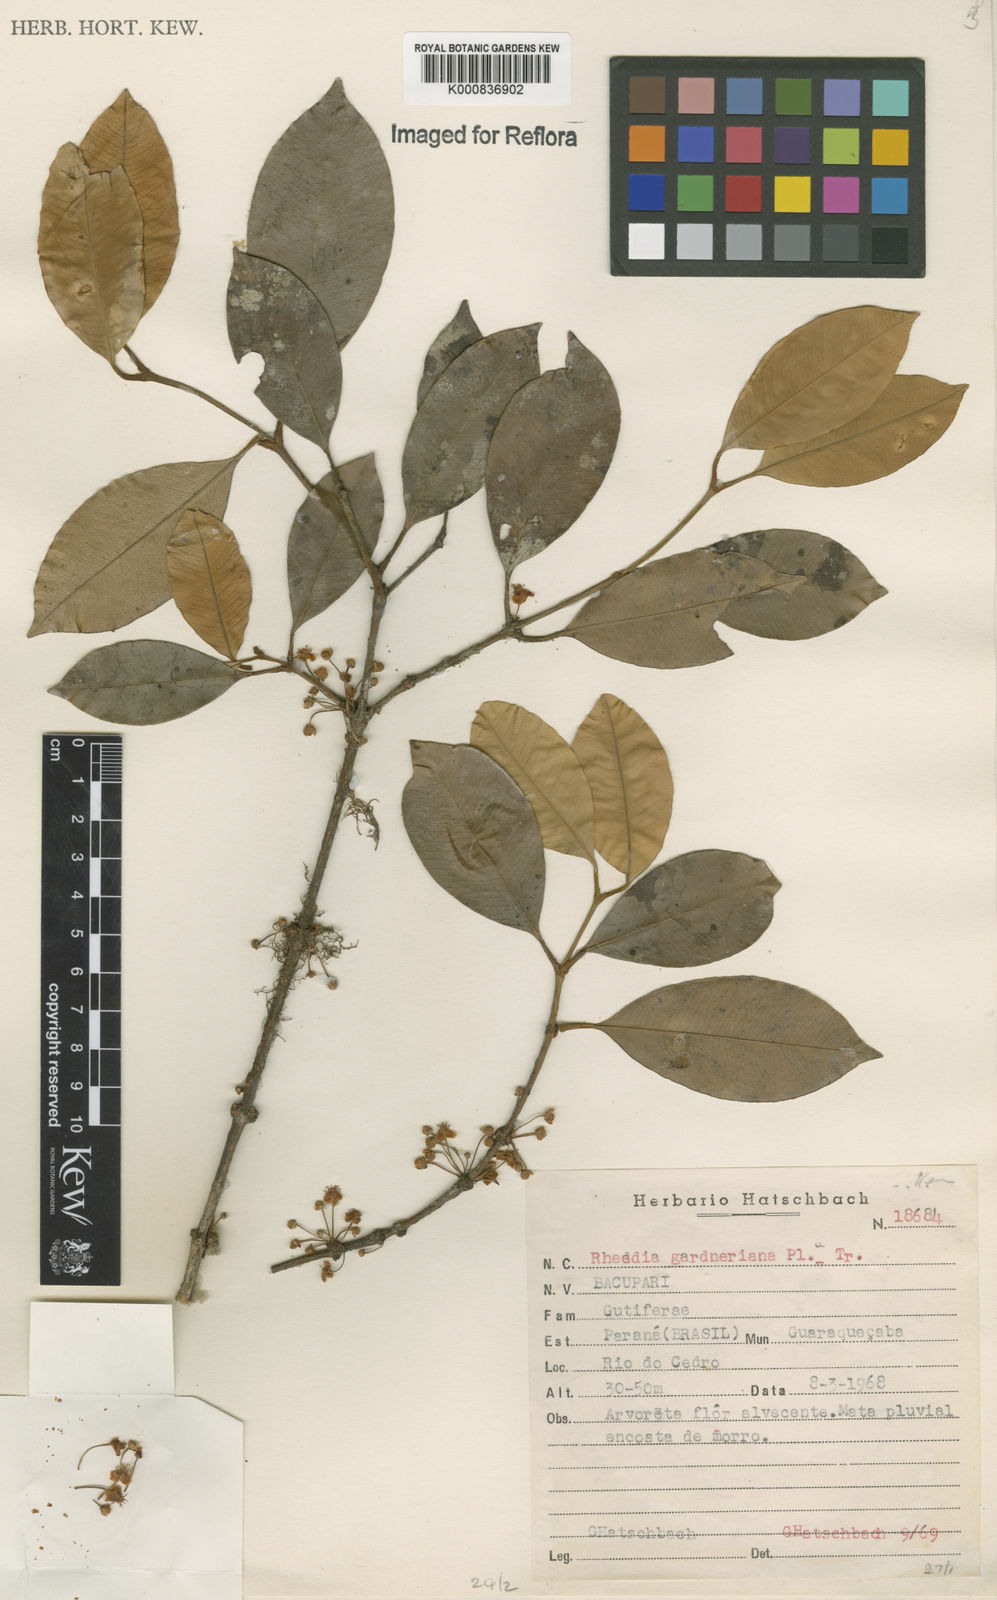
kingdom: Plantae
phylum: Tracheophyta
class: Magnoliopsida
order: Malpighiales
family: Clusiaceae
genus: Garcinia
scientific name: Garcinia gardneriana
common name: Achacha
